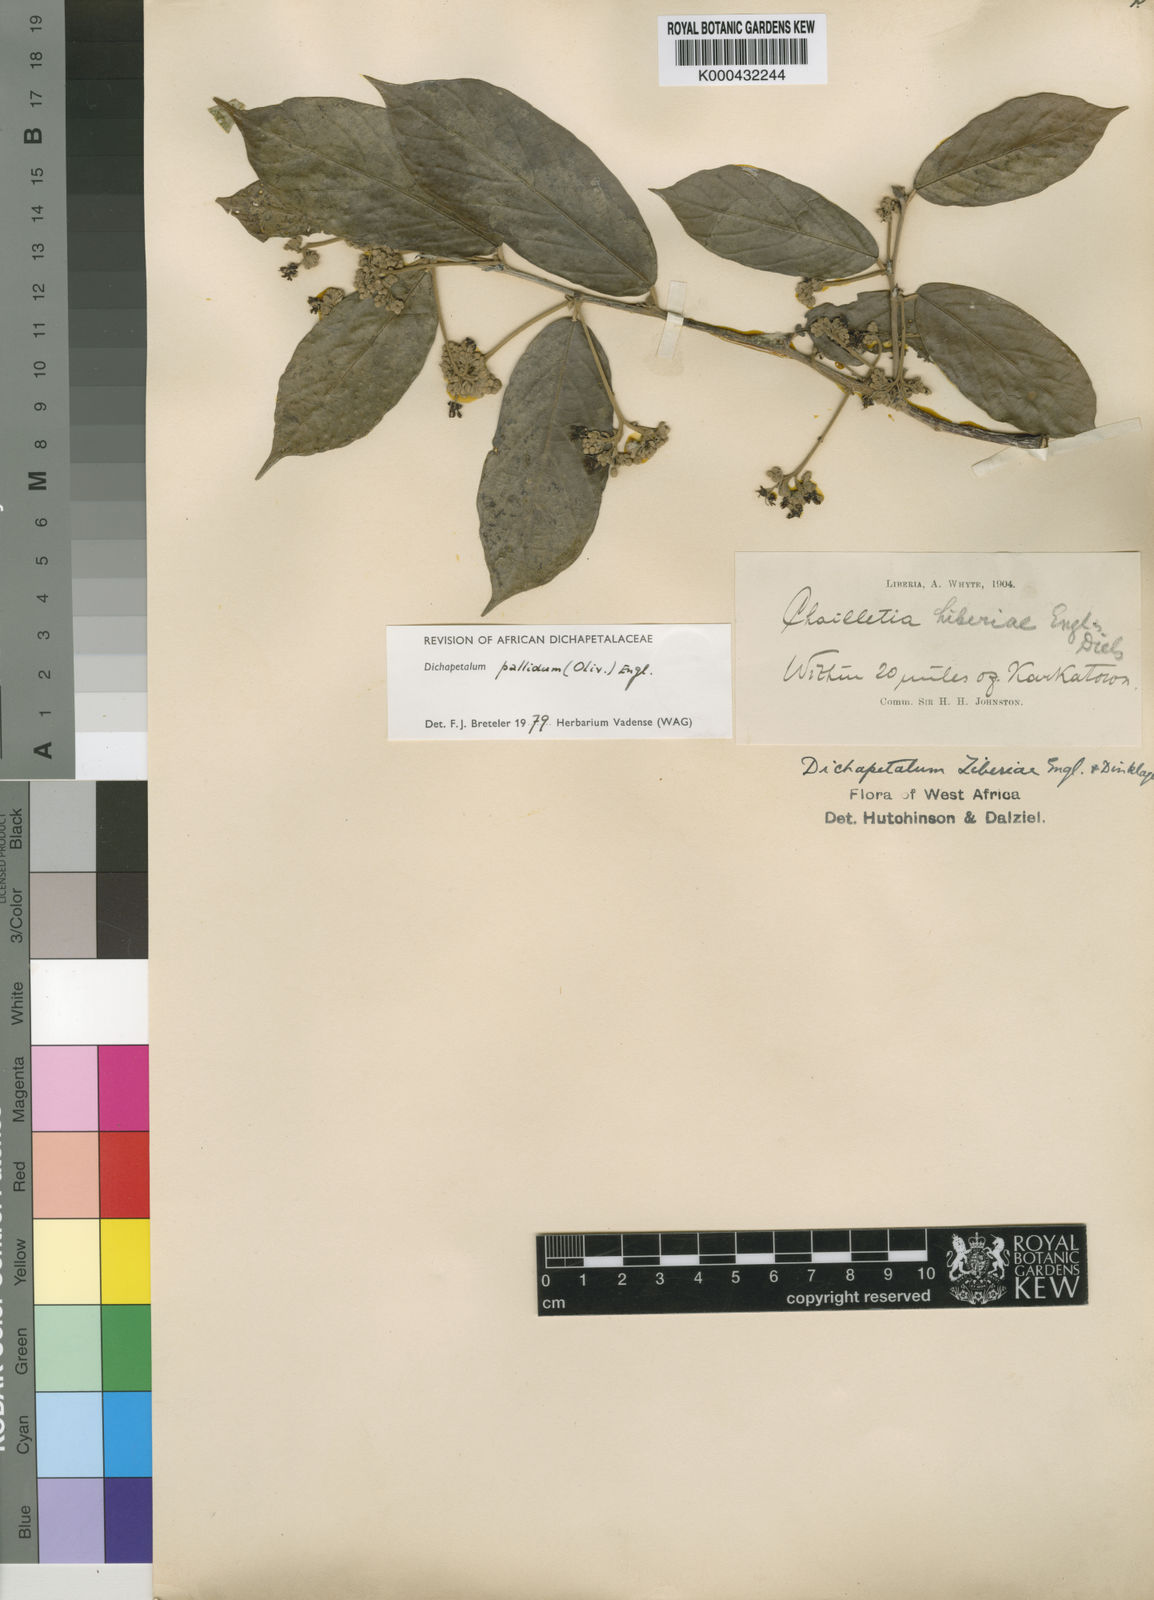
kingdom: Plantae
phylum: Tracheophyta
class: Magnoliopsida
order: Malpighiales
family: Dichapetalaceae
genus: Dichapetalum
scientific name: Dichapetalum pallidum
